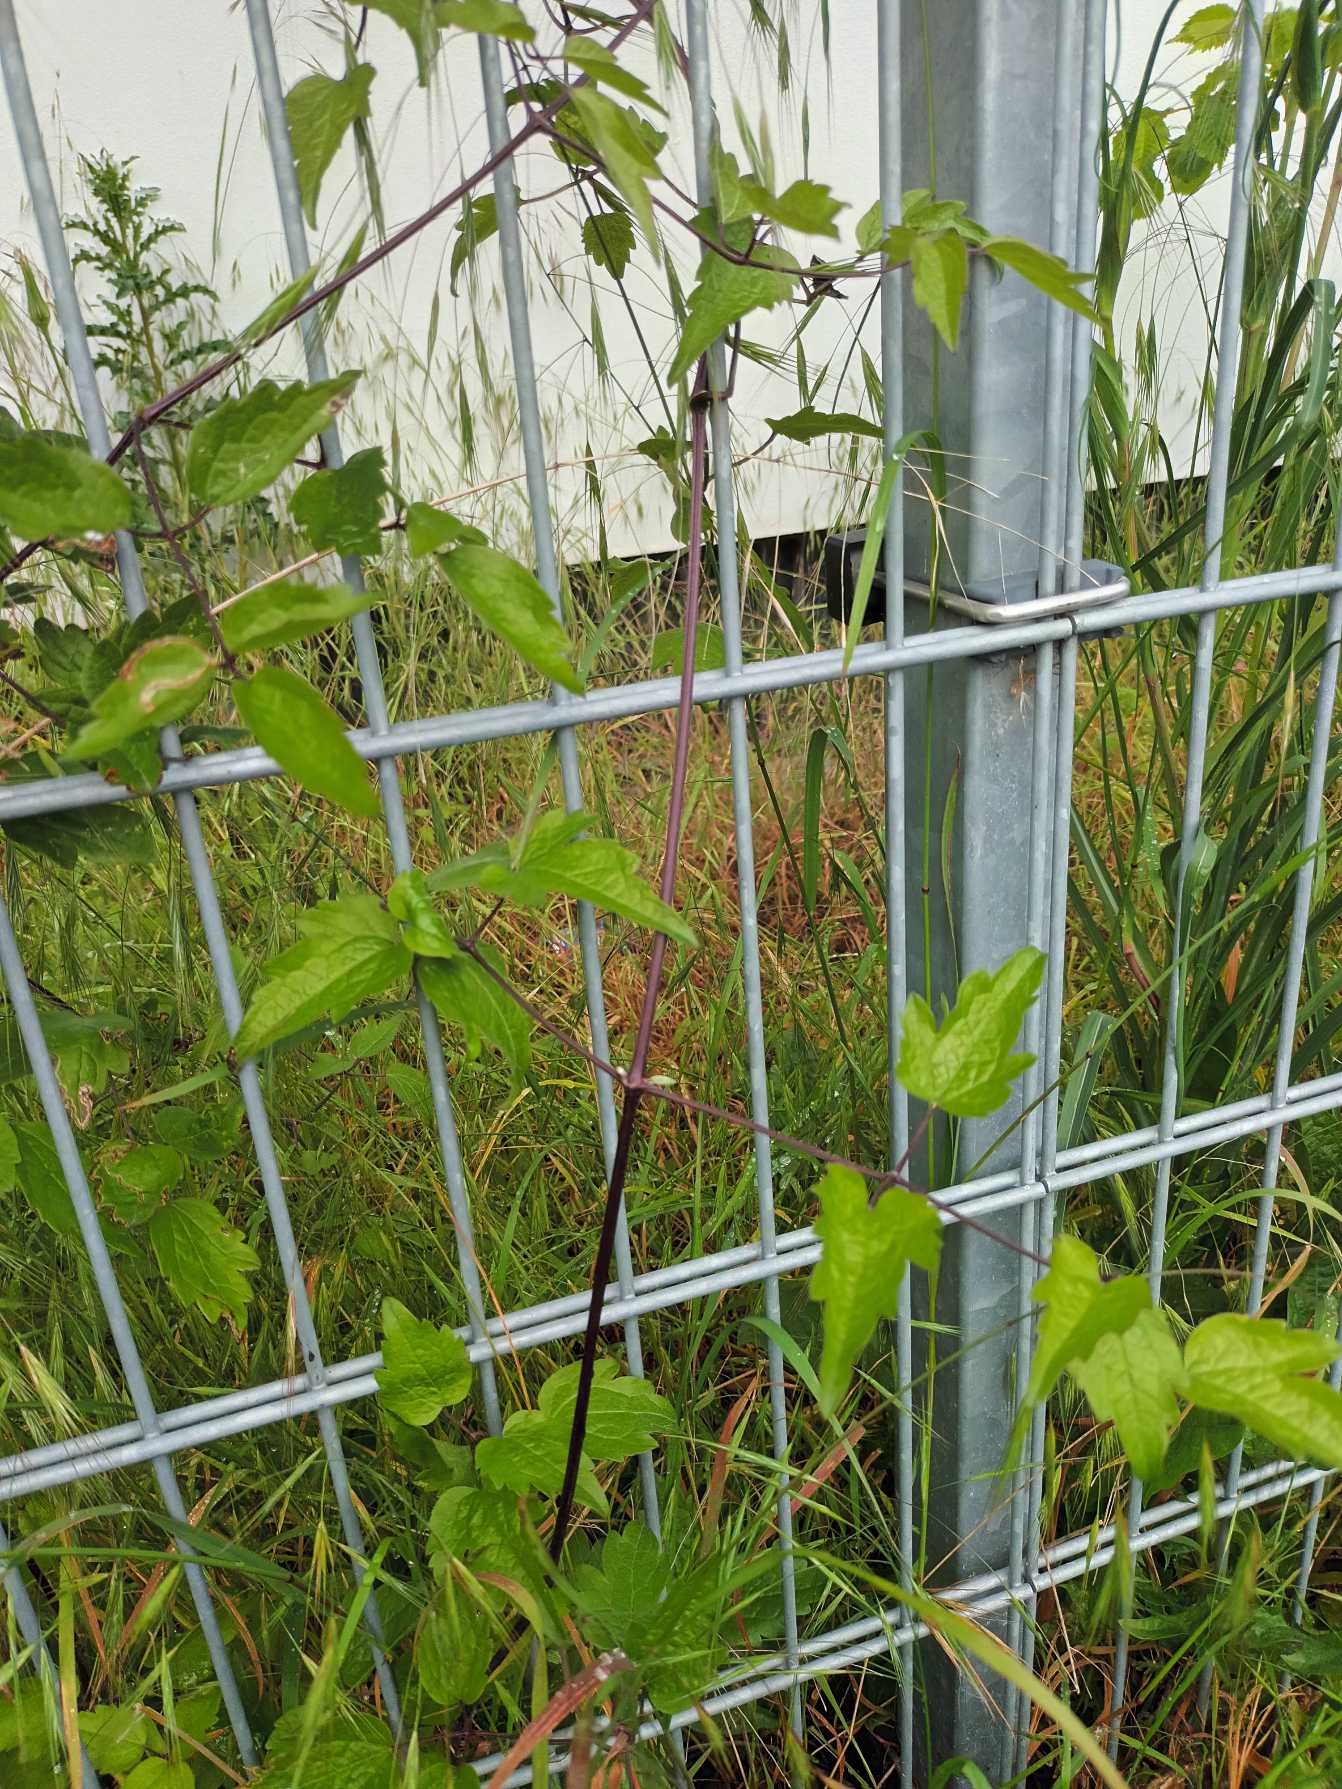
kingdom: Plantae
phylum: Tracheophyta
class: Magnoliopsida
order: Ranunculales
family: Ranunculaceae
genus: Clematis
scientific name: Clematis vitalba
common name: Skovranke
